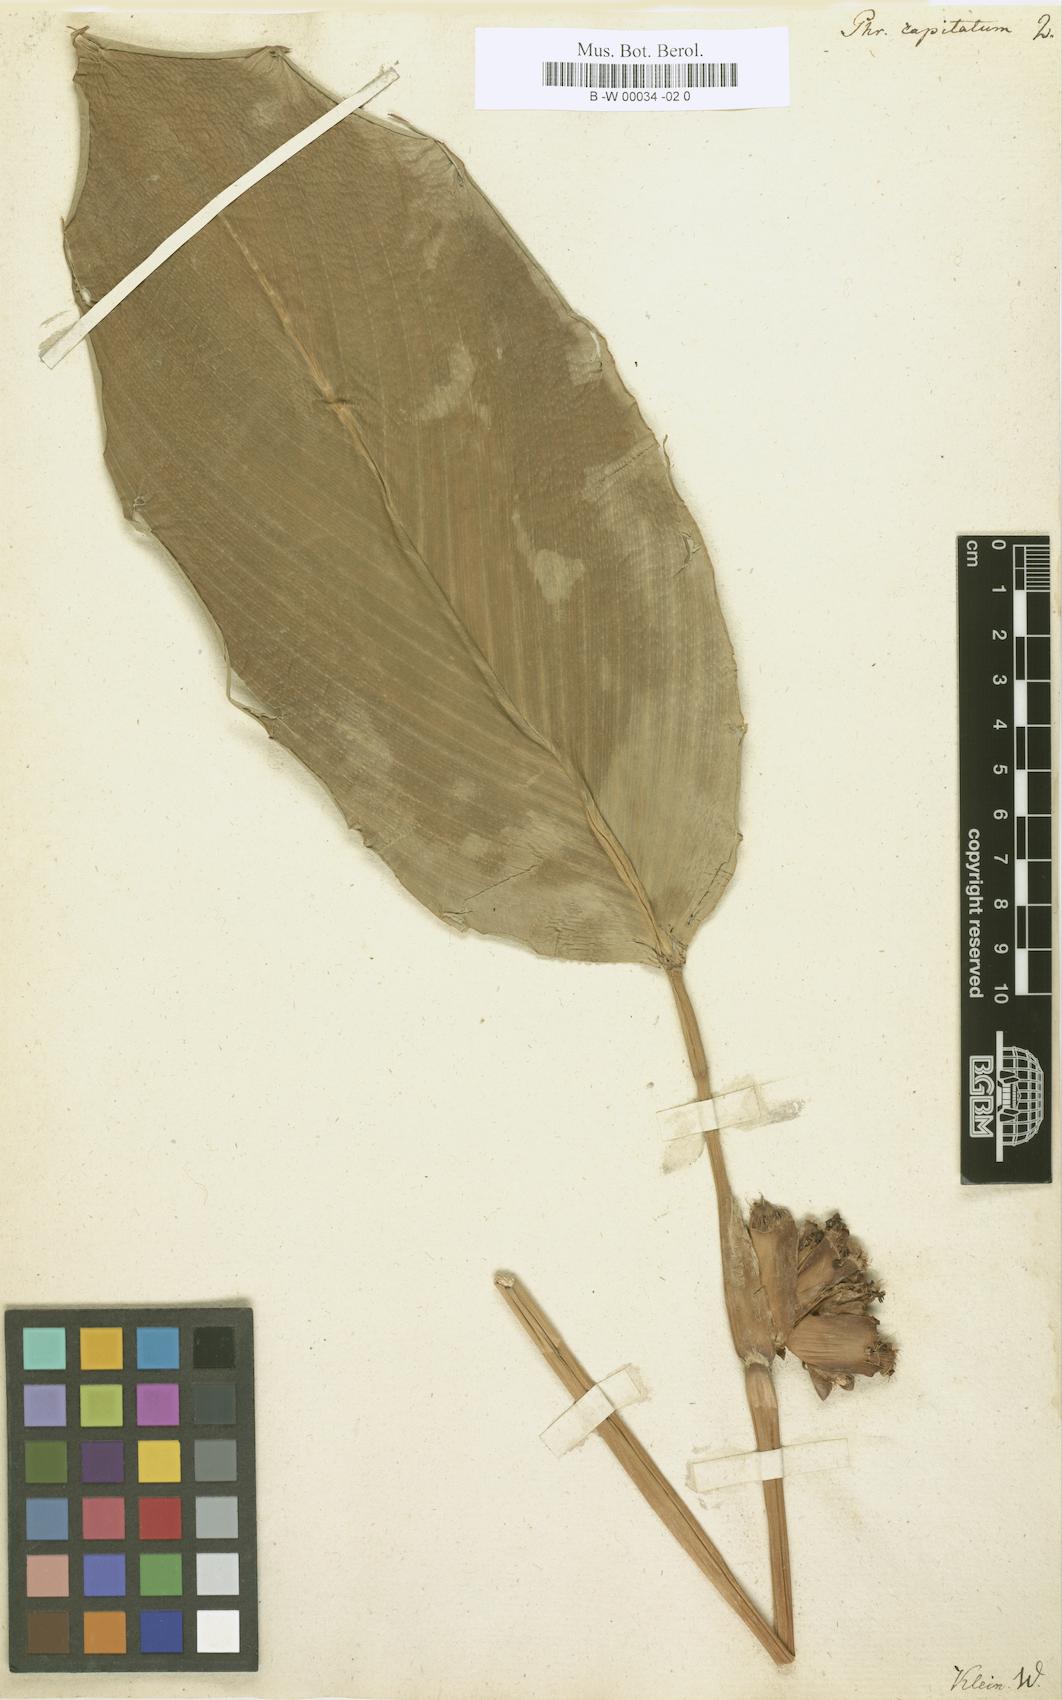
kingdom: Plantae
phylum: Tracheophyta
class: Liliopsida
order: Zingiberales
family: Marantaceae
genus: Phrynium
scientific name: Phrynium pubinerve
